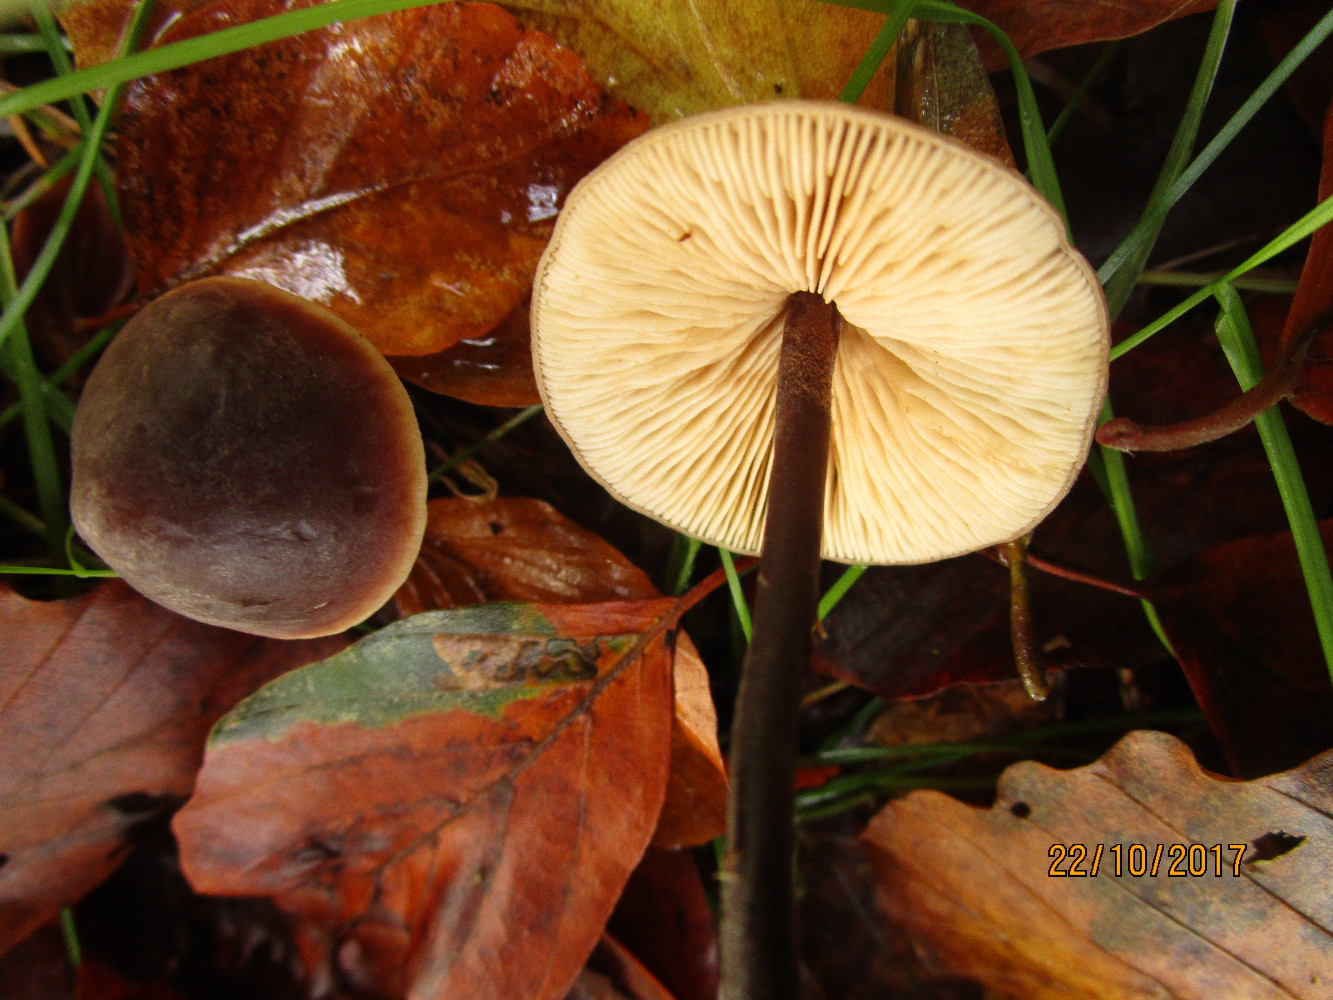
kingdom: Fungi
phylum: Basidiomycota
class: Agaricomycetes
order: Agaricales
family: Macrocystidiaceae
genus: Macrocystidia
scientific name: Macrocystidia cucumis
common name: agurkehat
